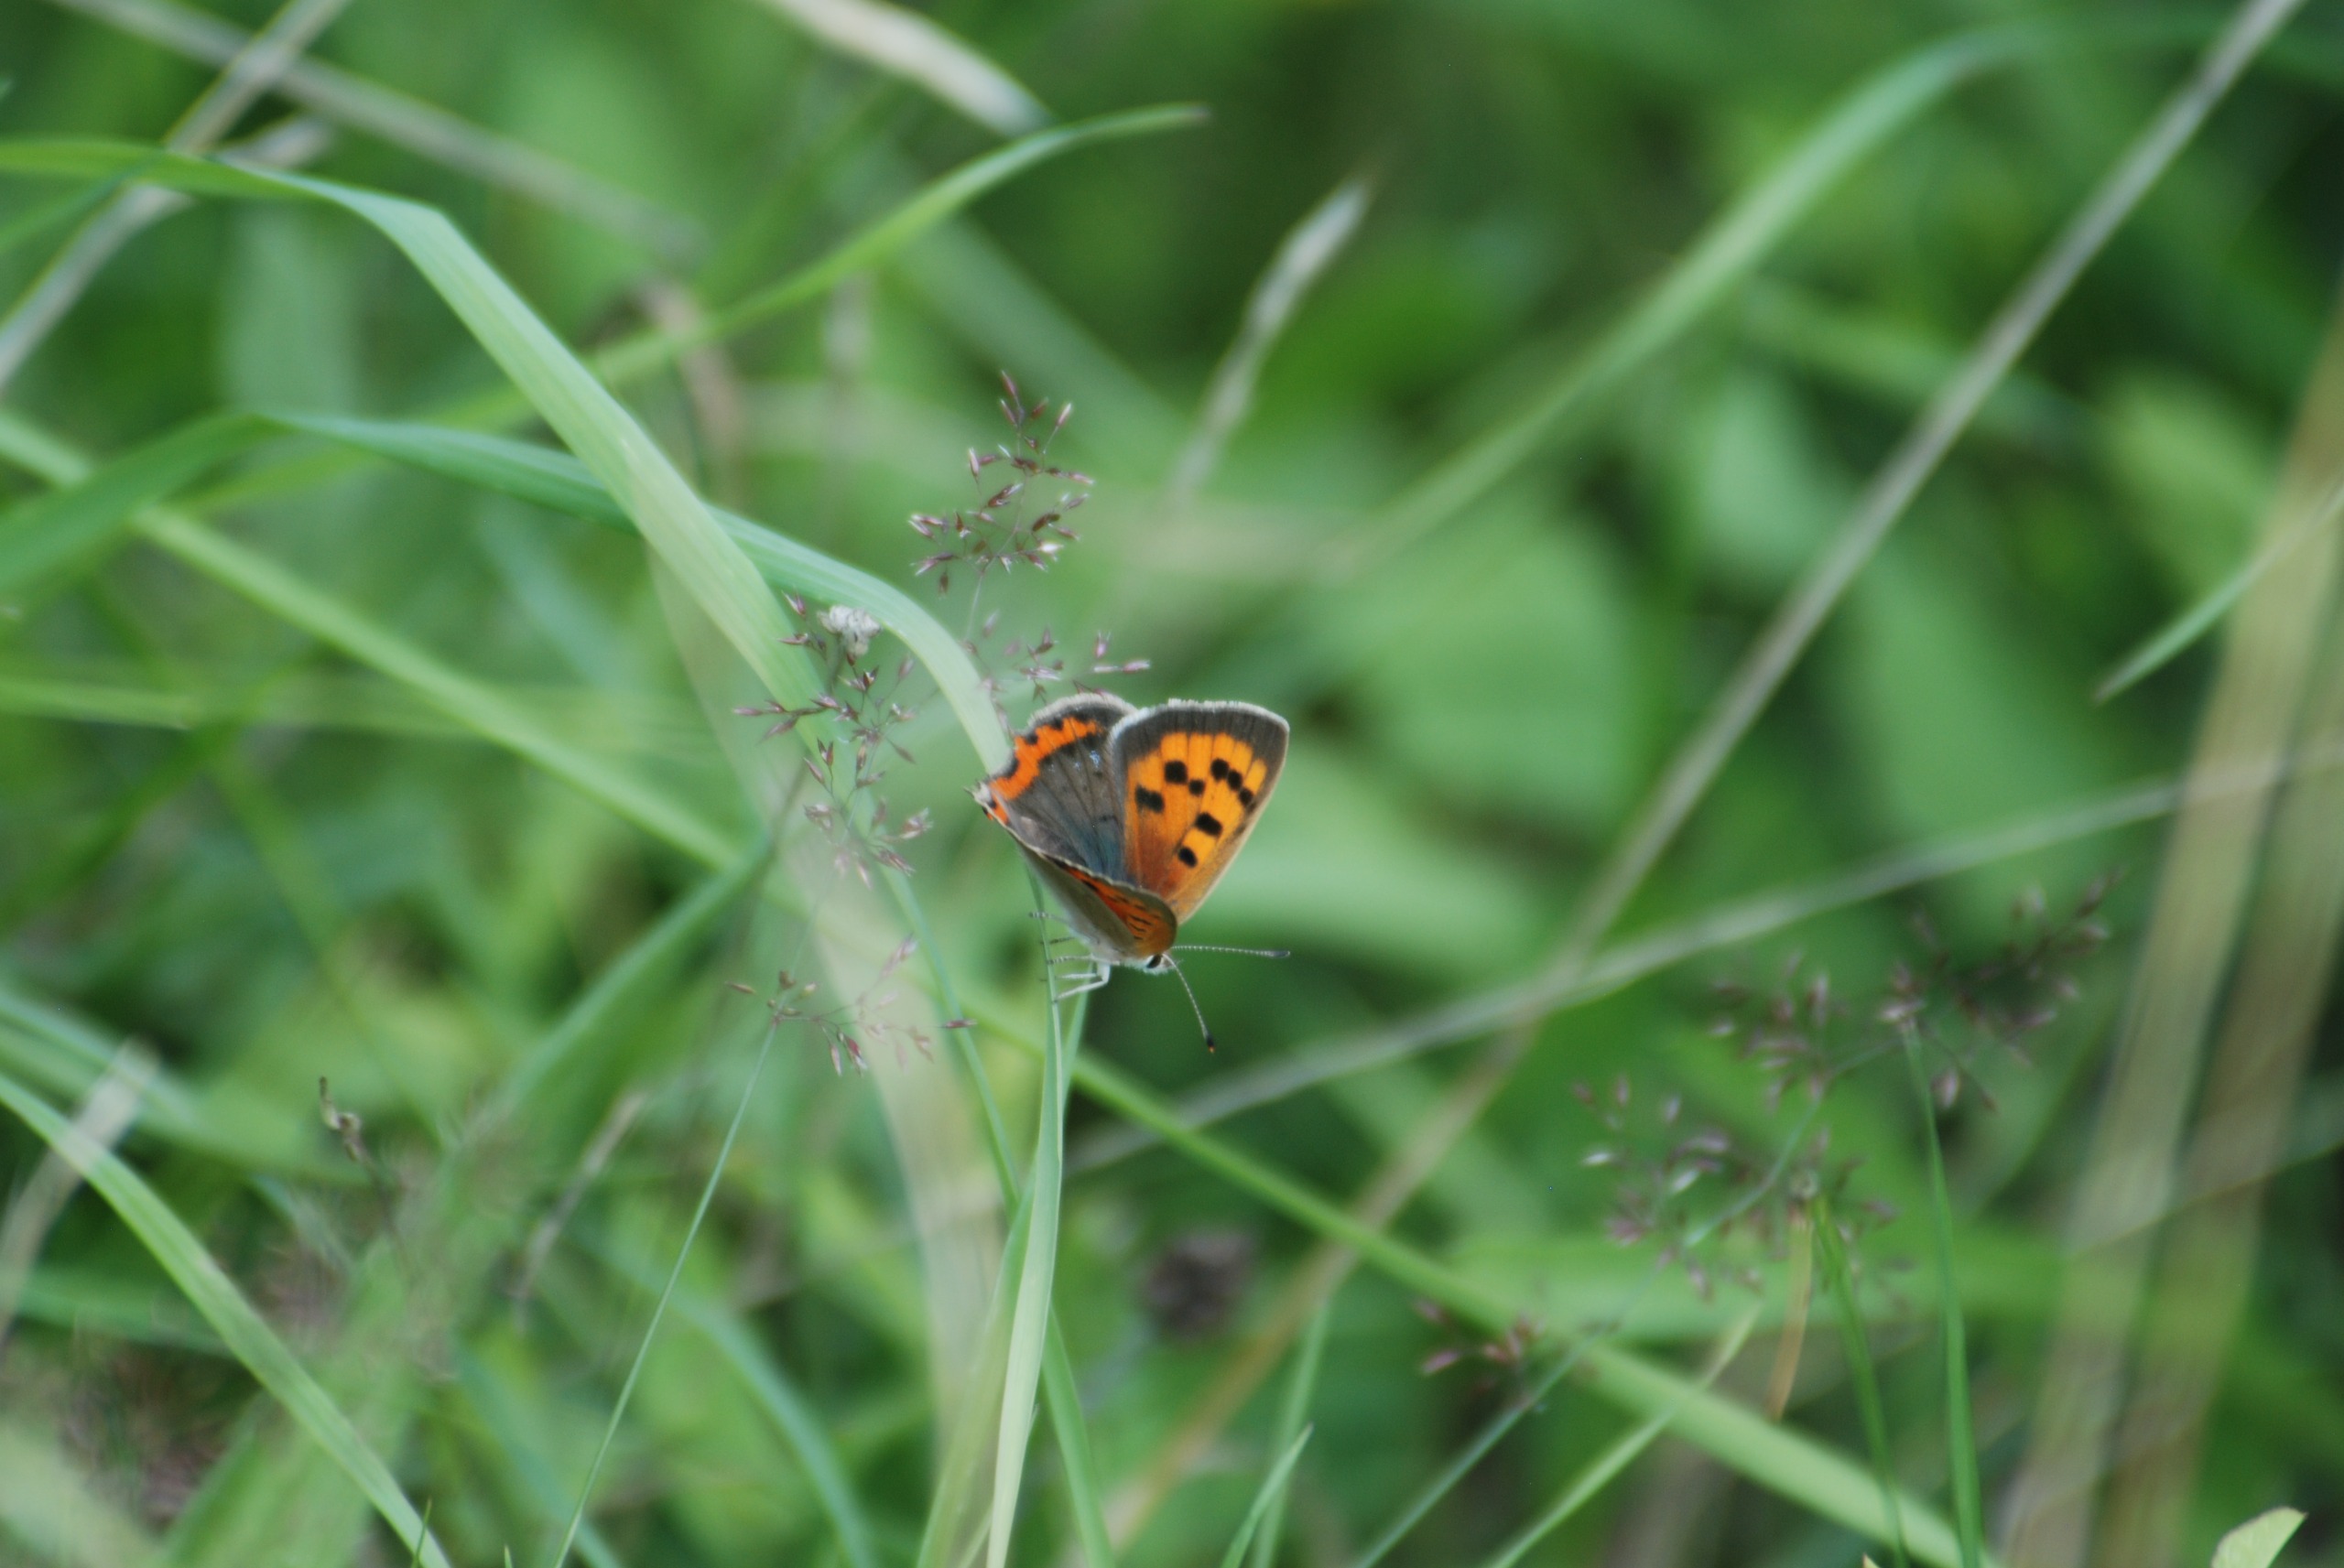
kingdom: Animalia
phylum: Arthropoda
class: Insecta
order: Lepidoptera
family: Lycaenidae
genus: Lycaena
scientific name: Lycaena phlaeas
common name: Lille ildfugl
